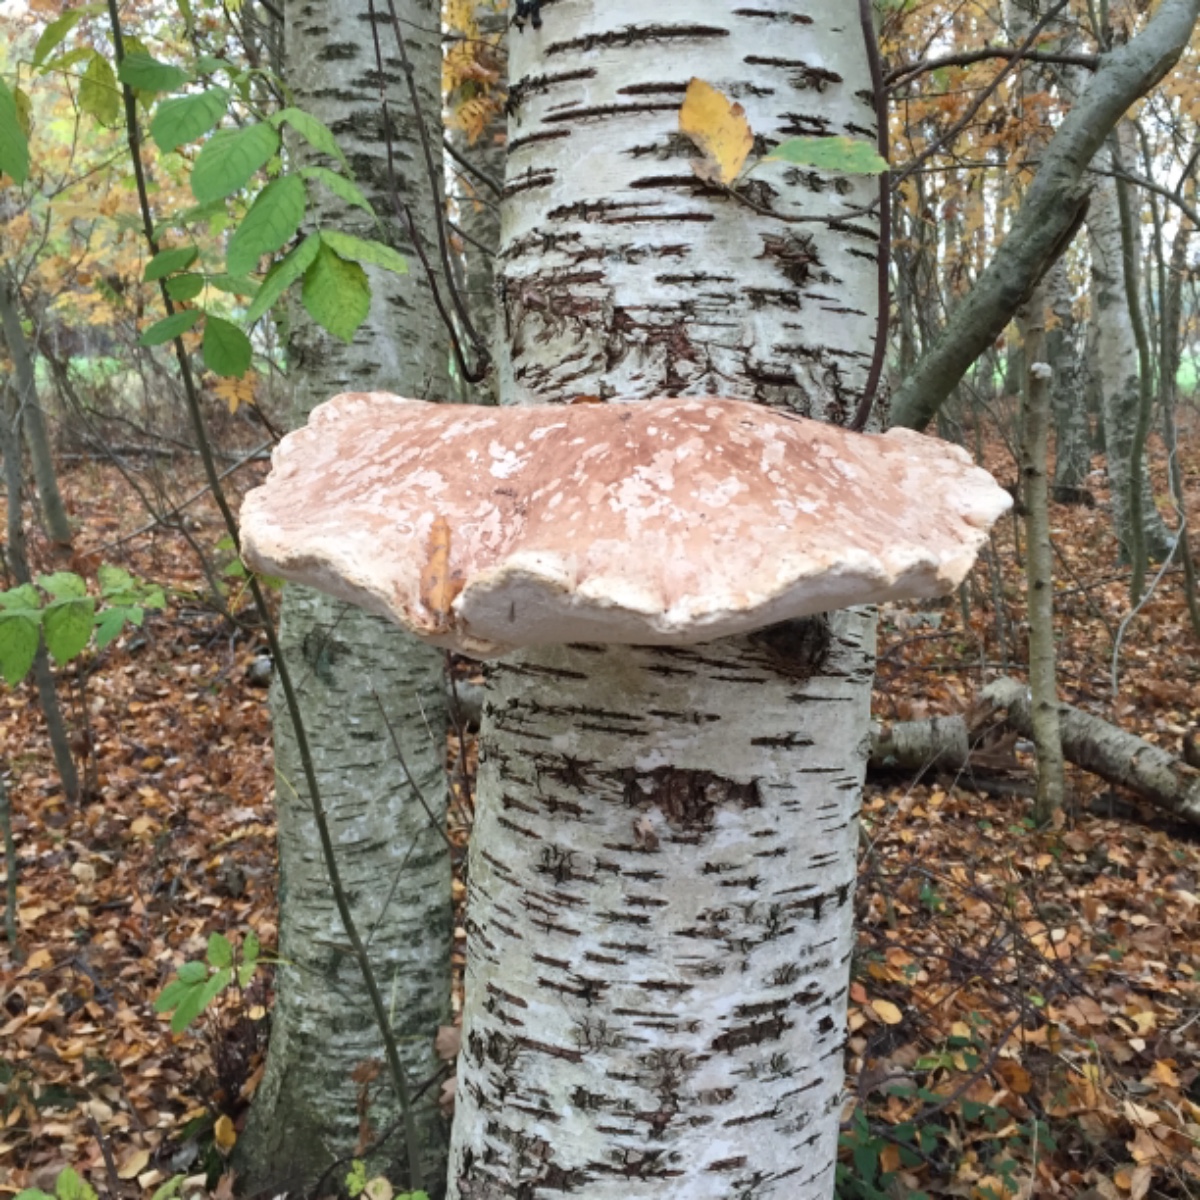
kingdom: Fungi
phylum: Basidiomycota
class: Agaricomycetes
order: Polyporales
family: Fomitopsidaceae
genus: Fomitopsis
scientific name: Fomitopsis betulina
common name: birkeporesvamp
